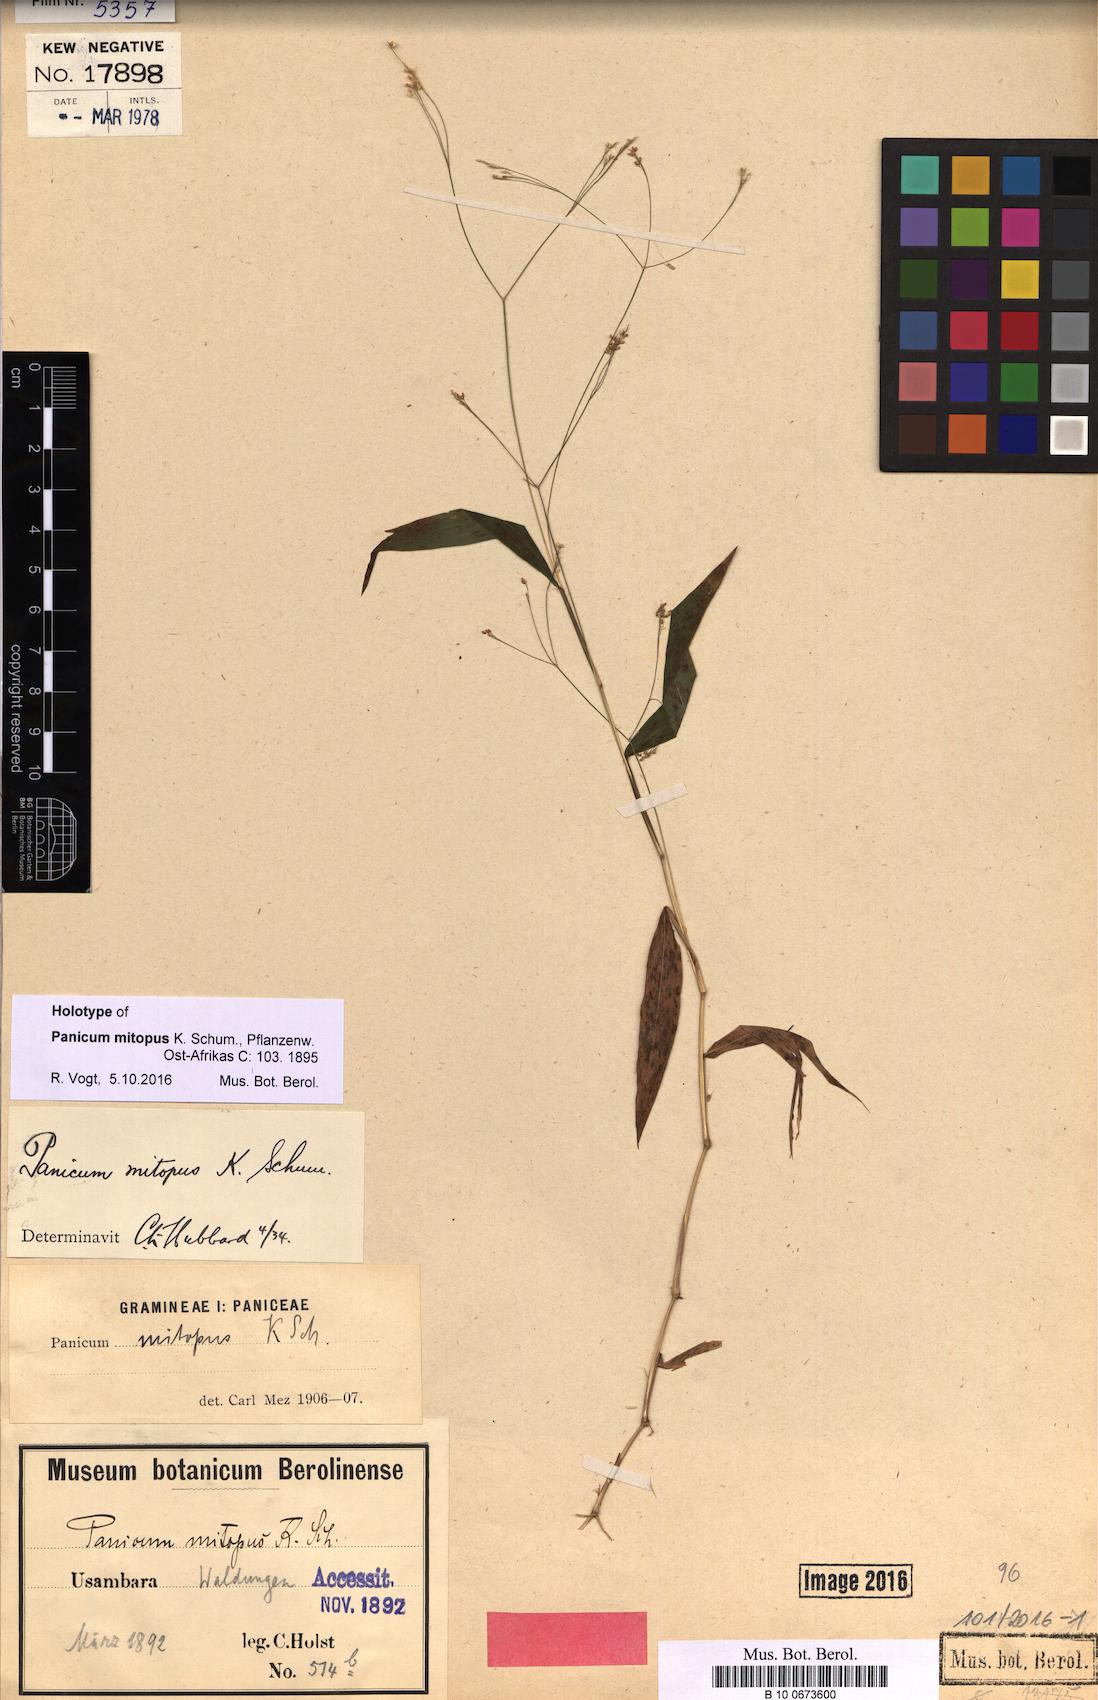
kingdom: Plantae
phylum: Tracheophyta
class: Liliopsida
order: Poales
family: Poaceae
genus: Panicum
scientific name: Panicum mitopus
